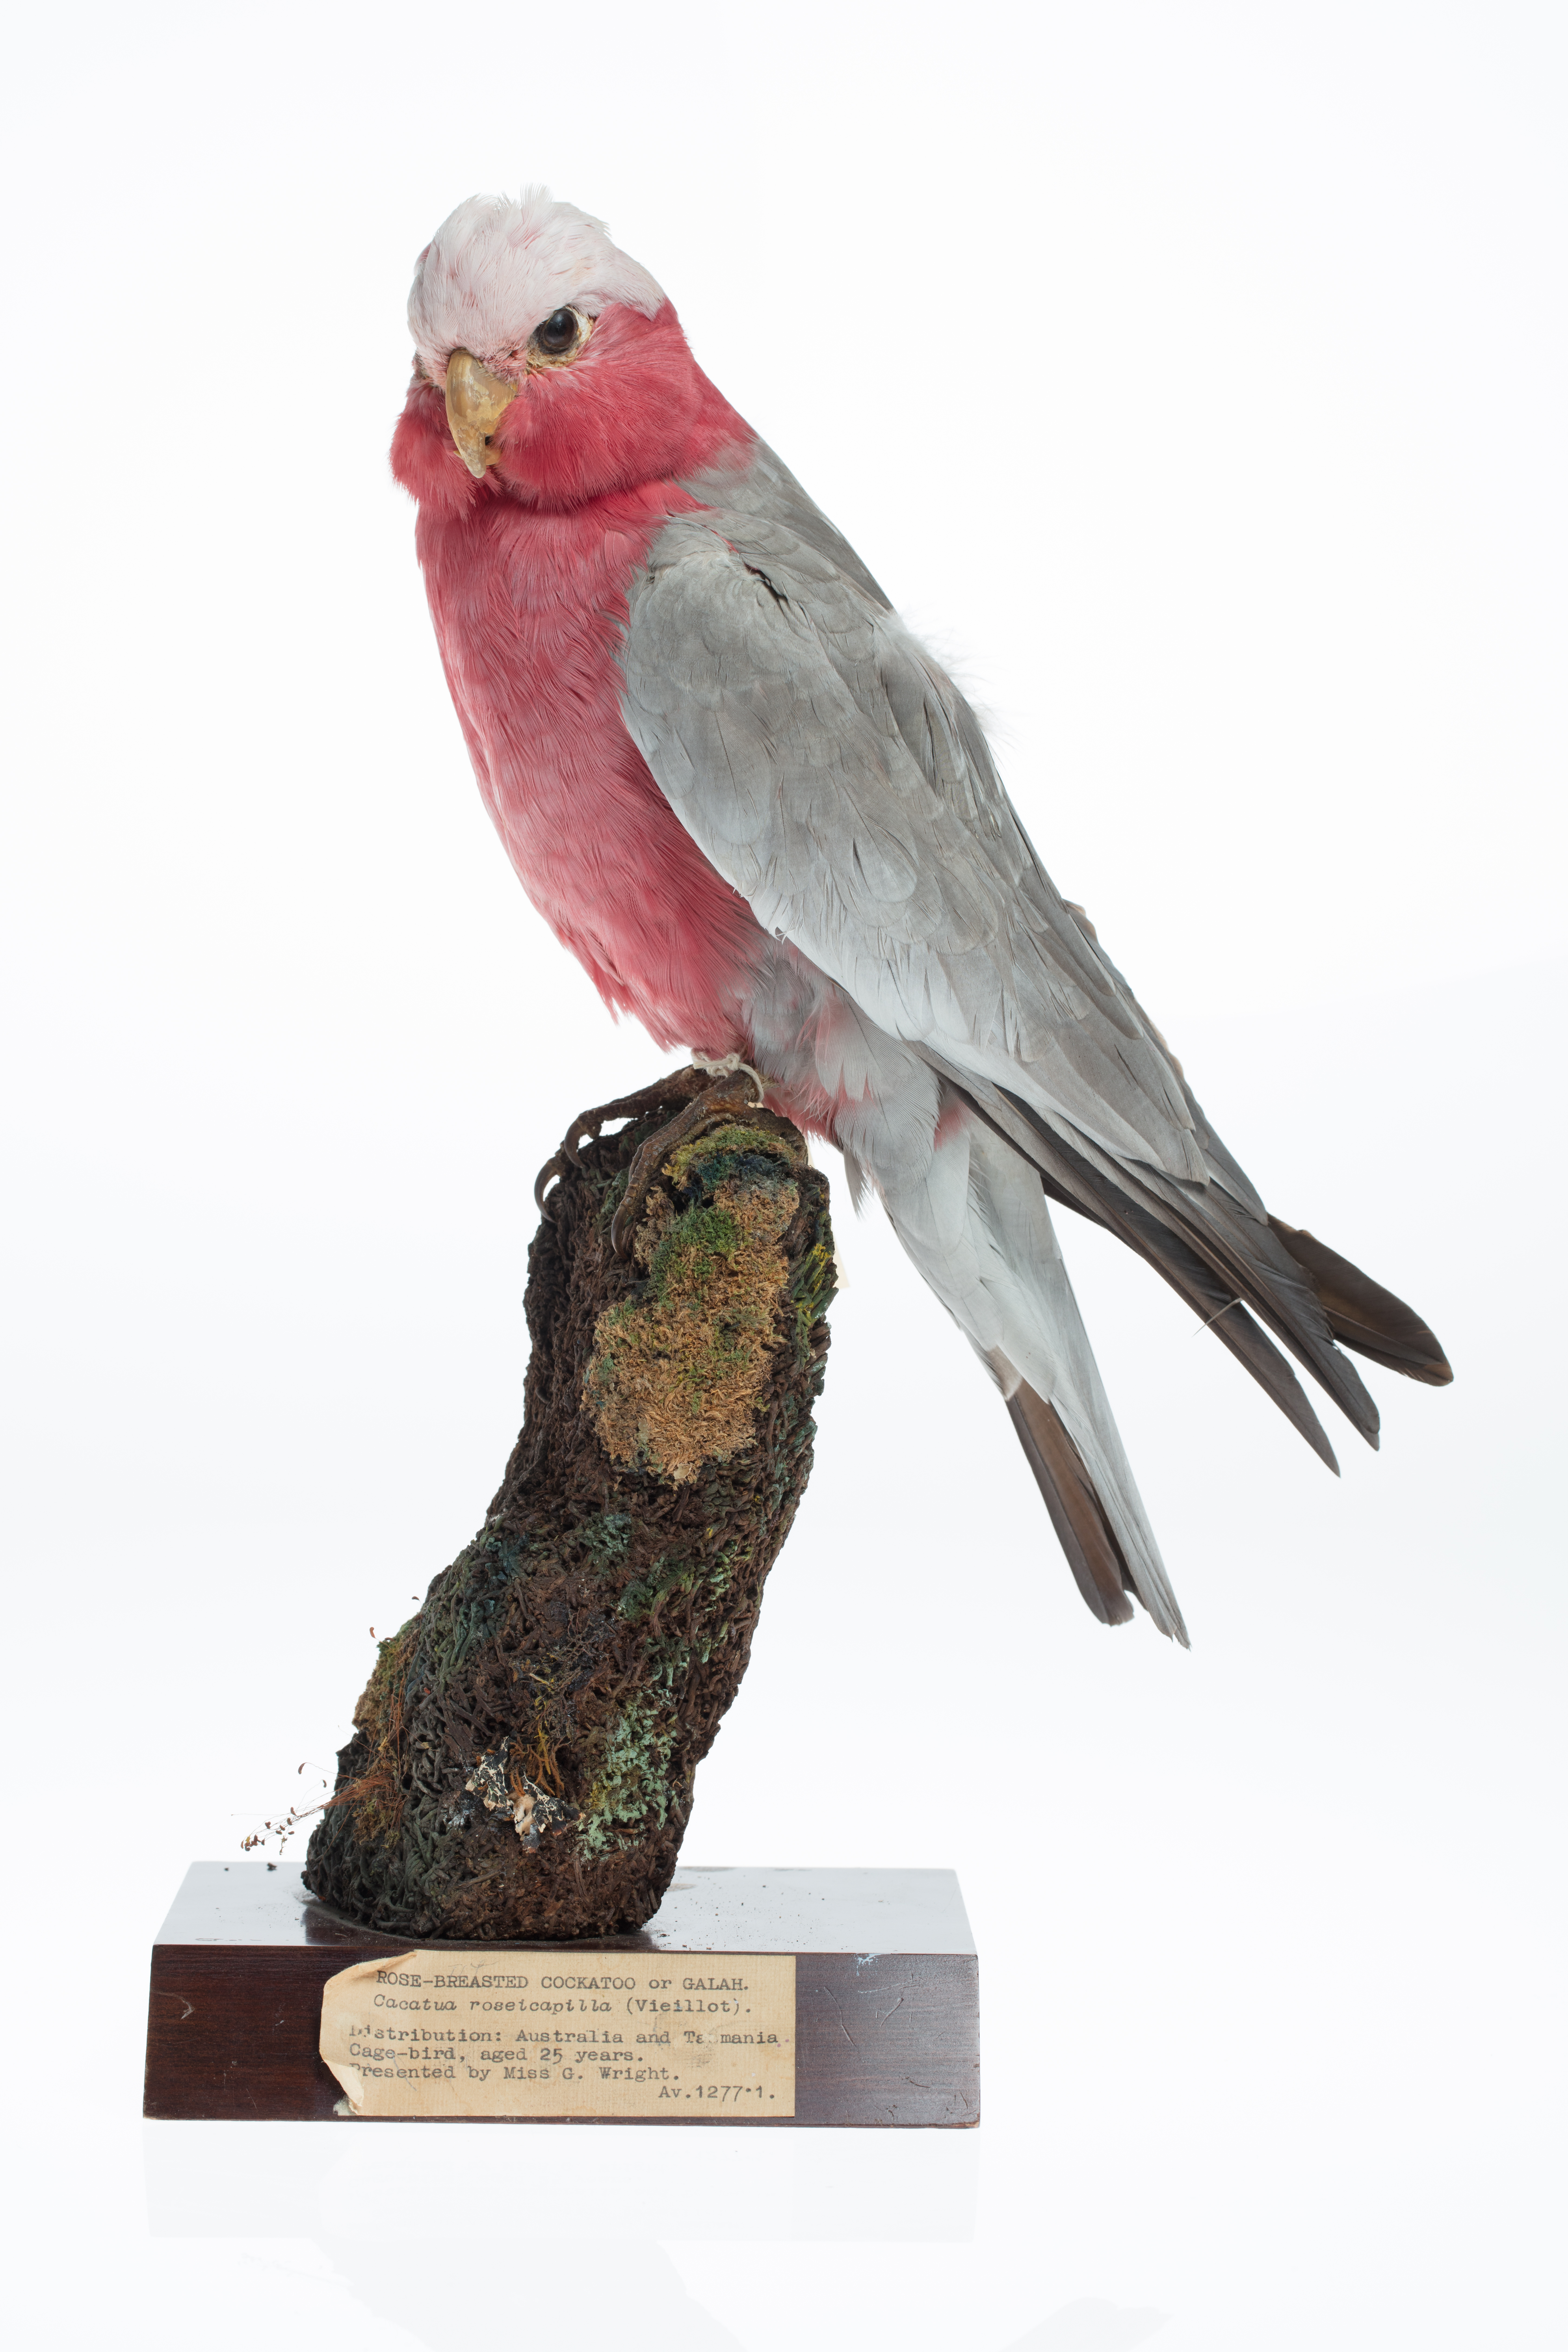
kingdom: Animalia
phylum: Chordata
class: Aves
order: Psittaciformes
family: Psittacidae
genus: Eolophus
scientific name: Eolophus roseicapilla
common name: Galah
